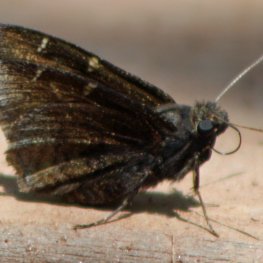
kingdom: Animalia
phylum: Arthropoda
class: Insecta
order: Lepidoptera
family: Hesperiidae
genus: Autochton
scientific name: Autochton
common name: Northern Cloudywing
